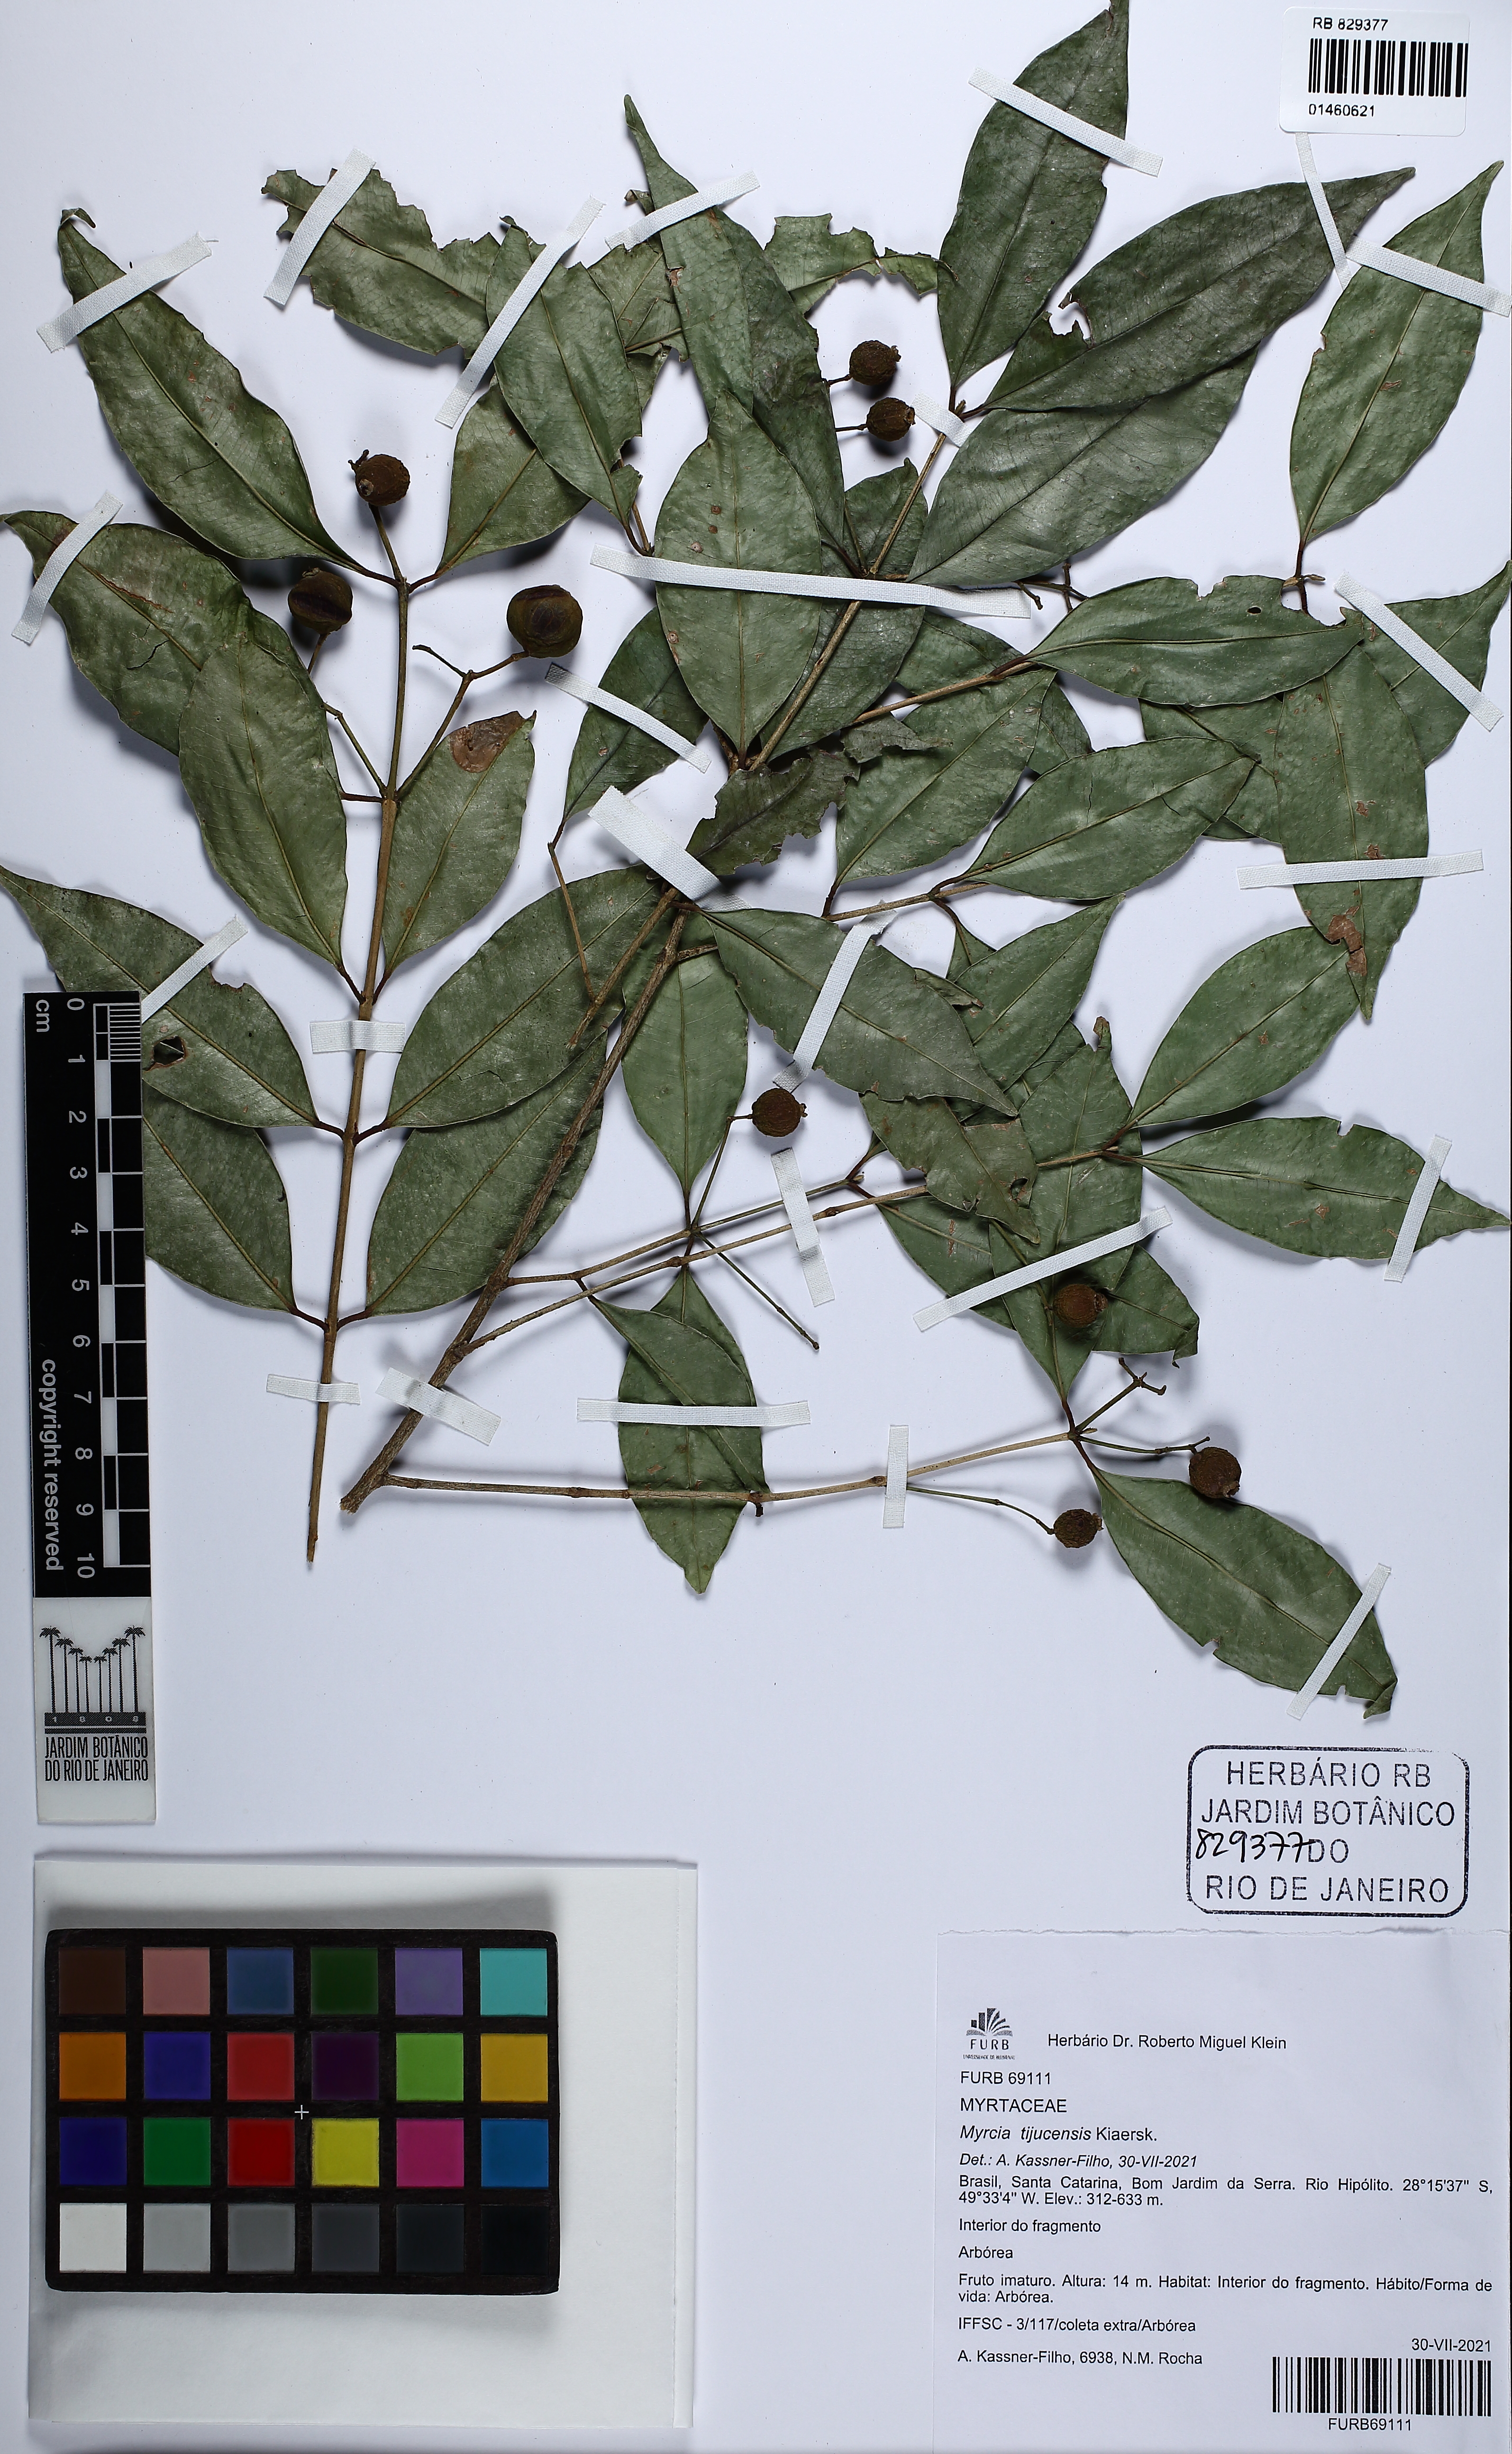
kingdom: Plantae
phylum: Tracheophyta
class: Magnoliopsida
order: Myrtales
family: Myrtaceae
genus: Myrcia
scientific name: Myrcia tijucensis
